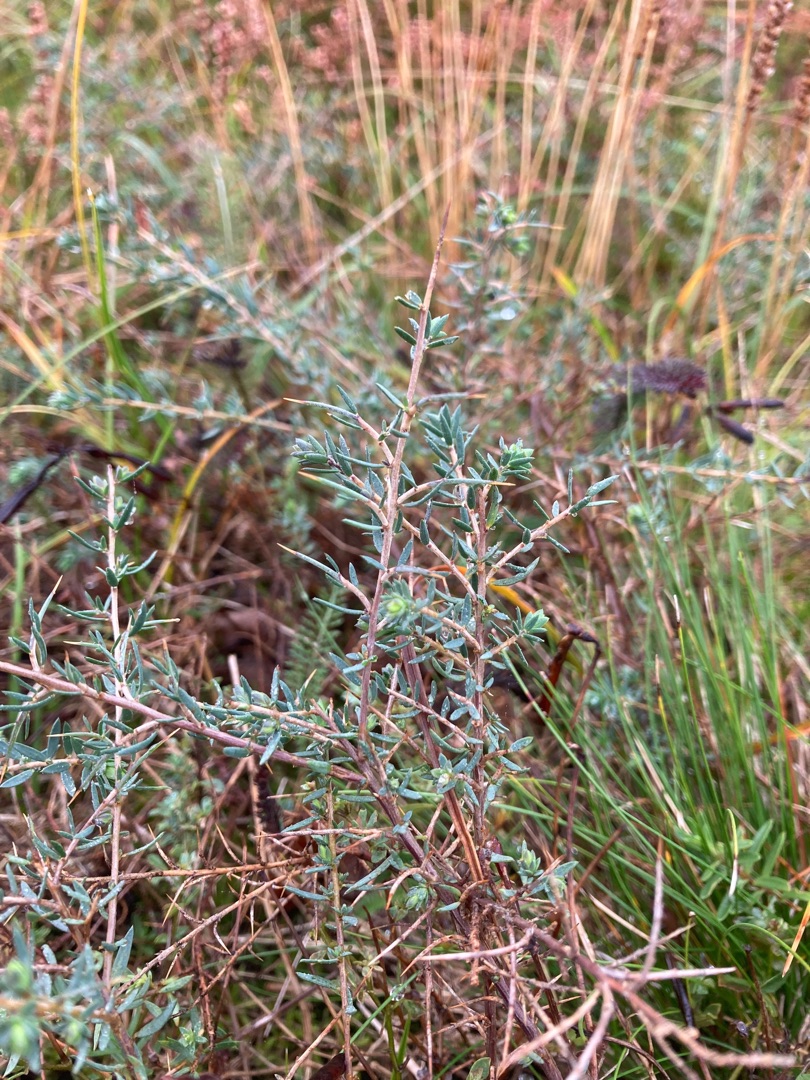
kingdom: Plantae
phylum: Tracheophyta
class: Magnoliopsida
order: Fabales
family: Fabaceae
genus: Genista
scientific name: Genista anglica
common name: Engelsk visse
